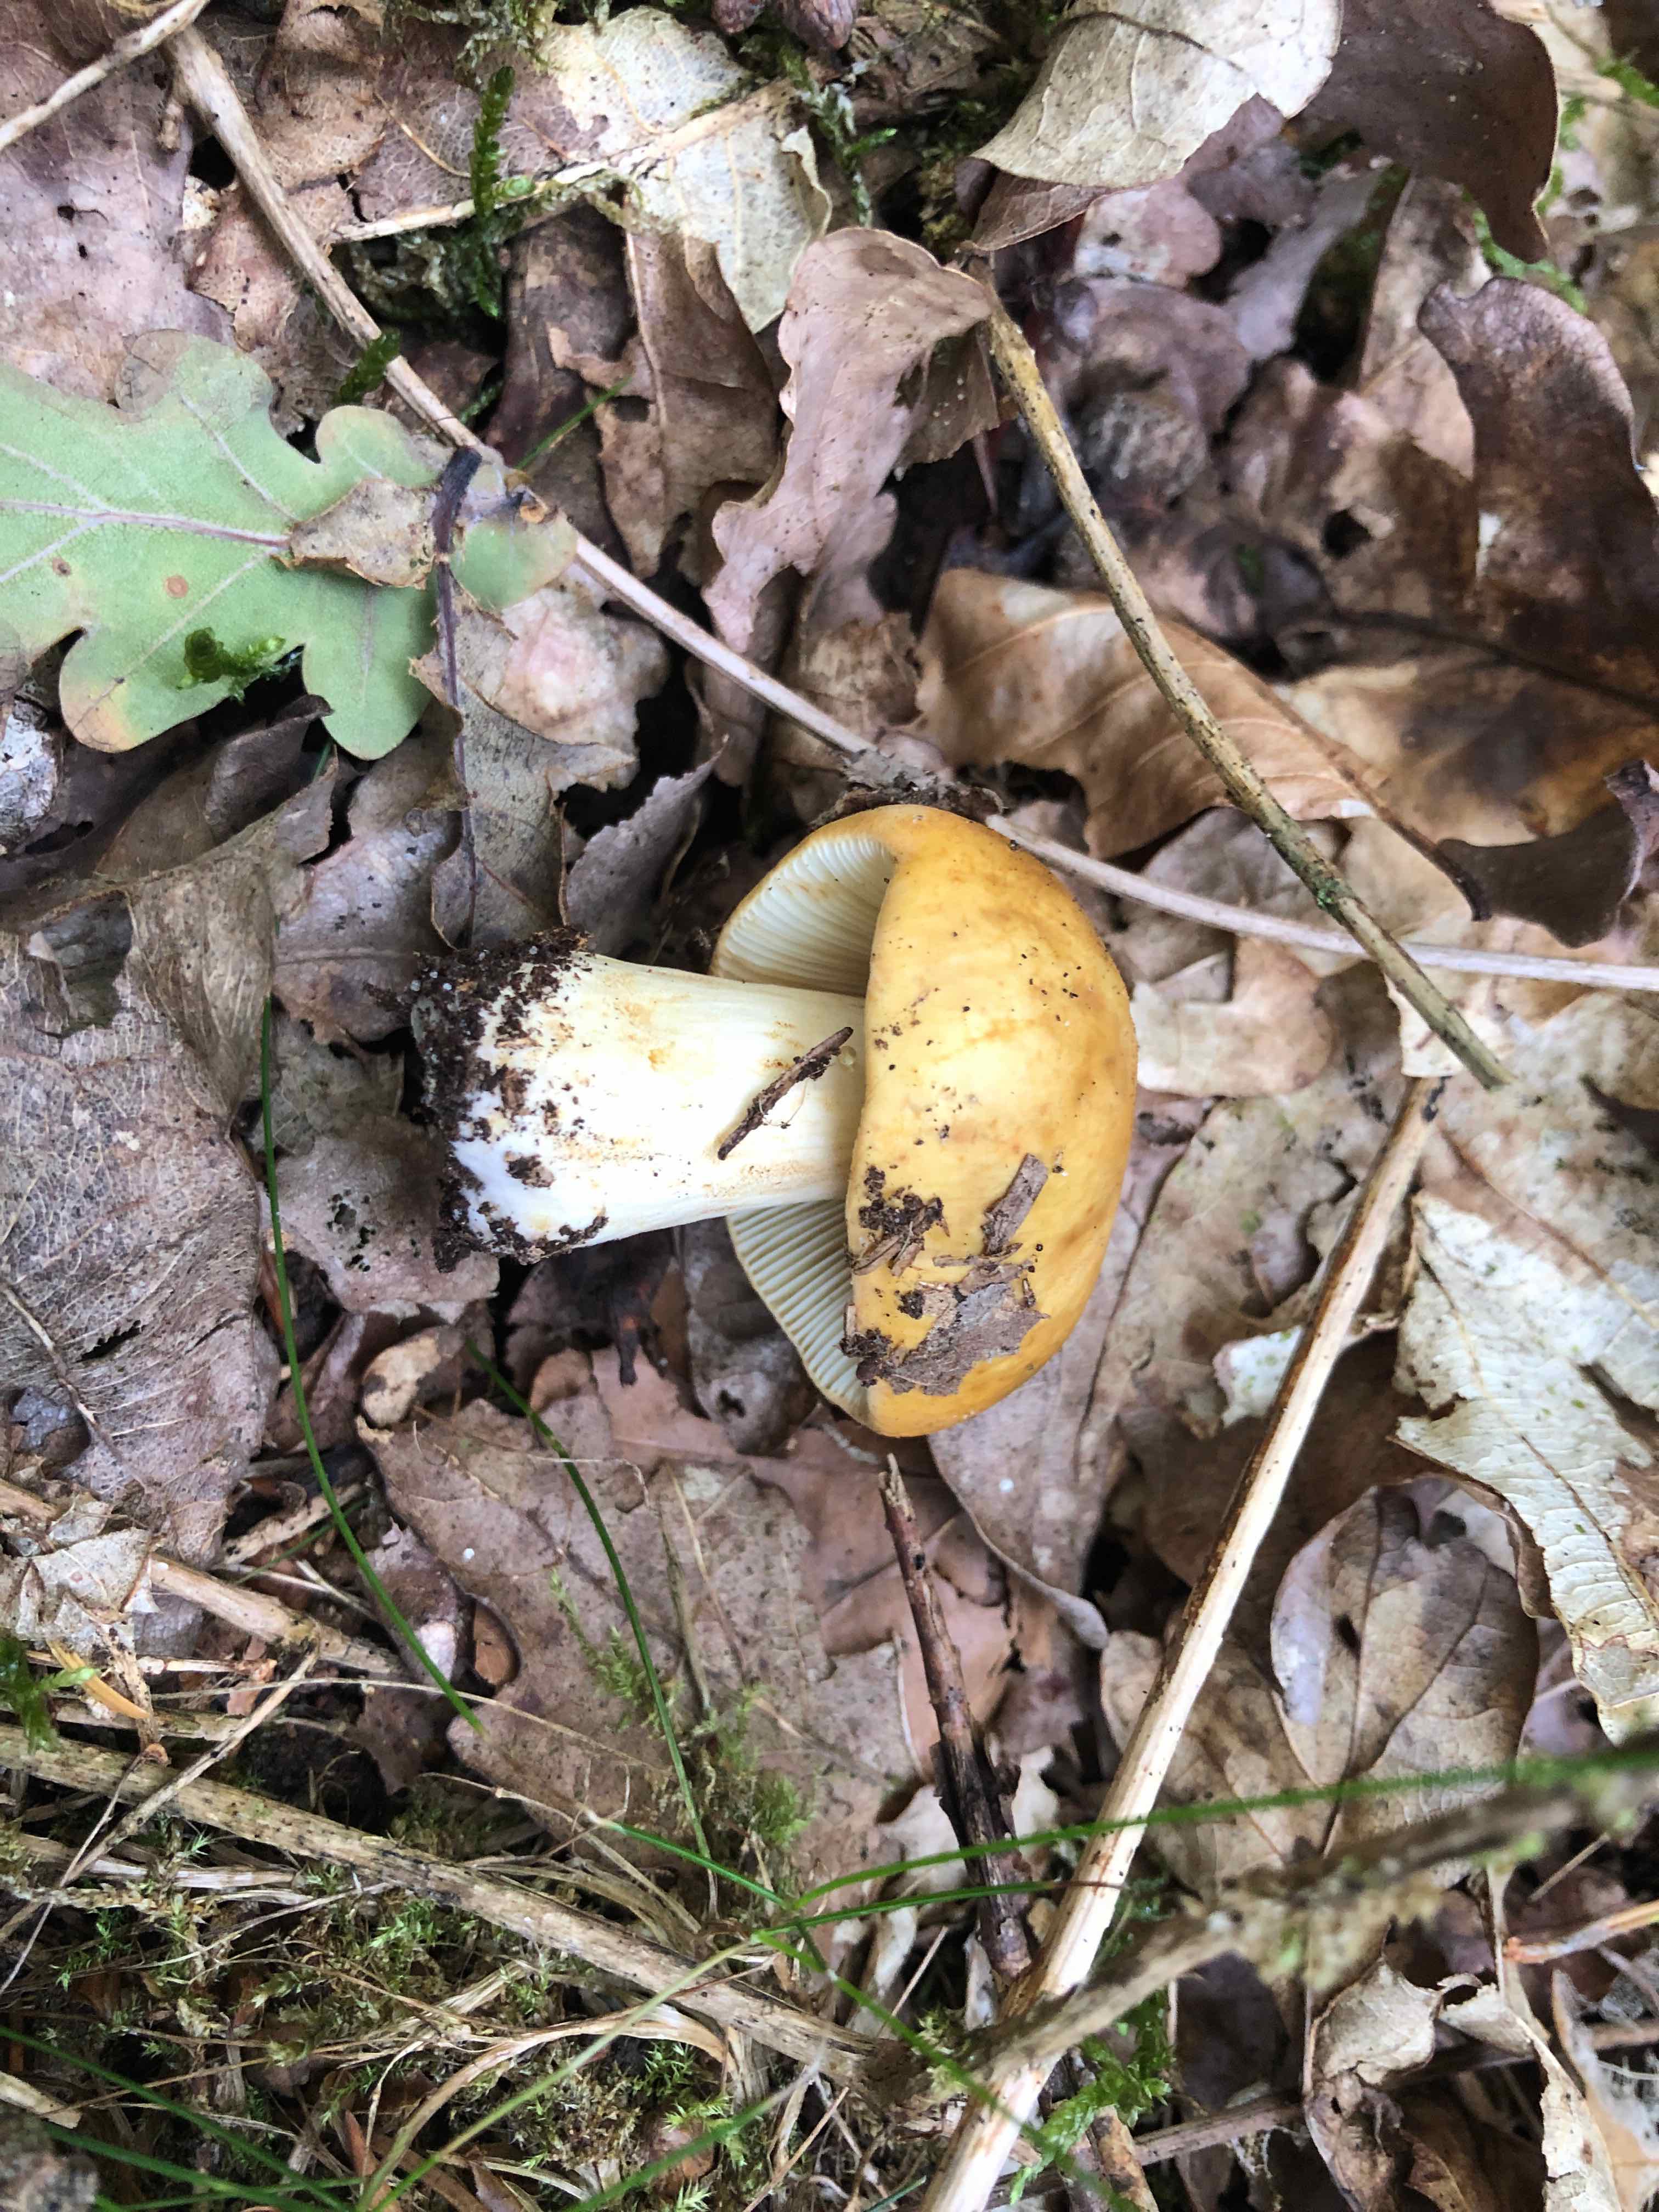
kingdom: Fungi
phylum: Basidiomycota
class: Agaricomycetes
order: Russulales
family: Russulaceae
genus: Russula
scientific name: Russula ochroleuca
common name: okkergul skørhat
